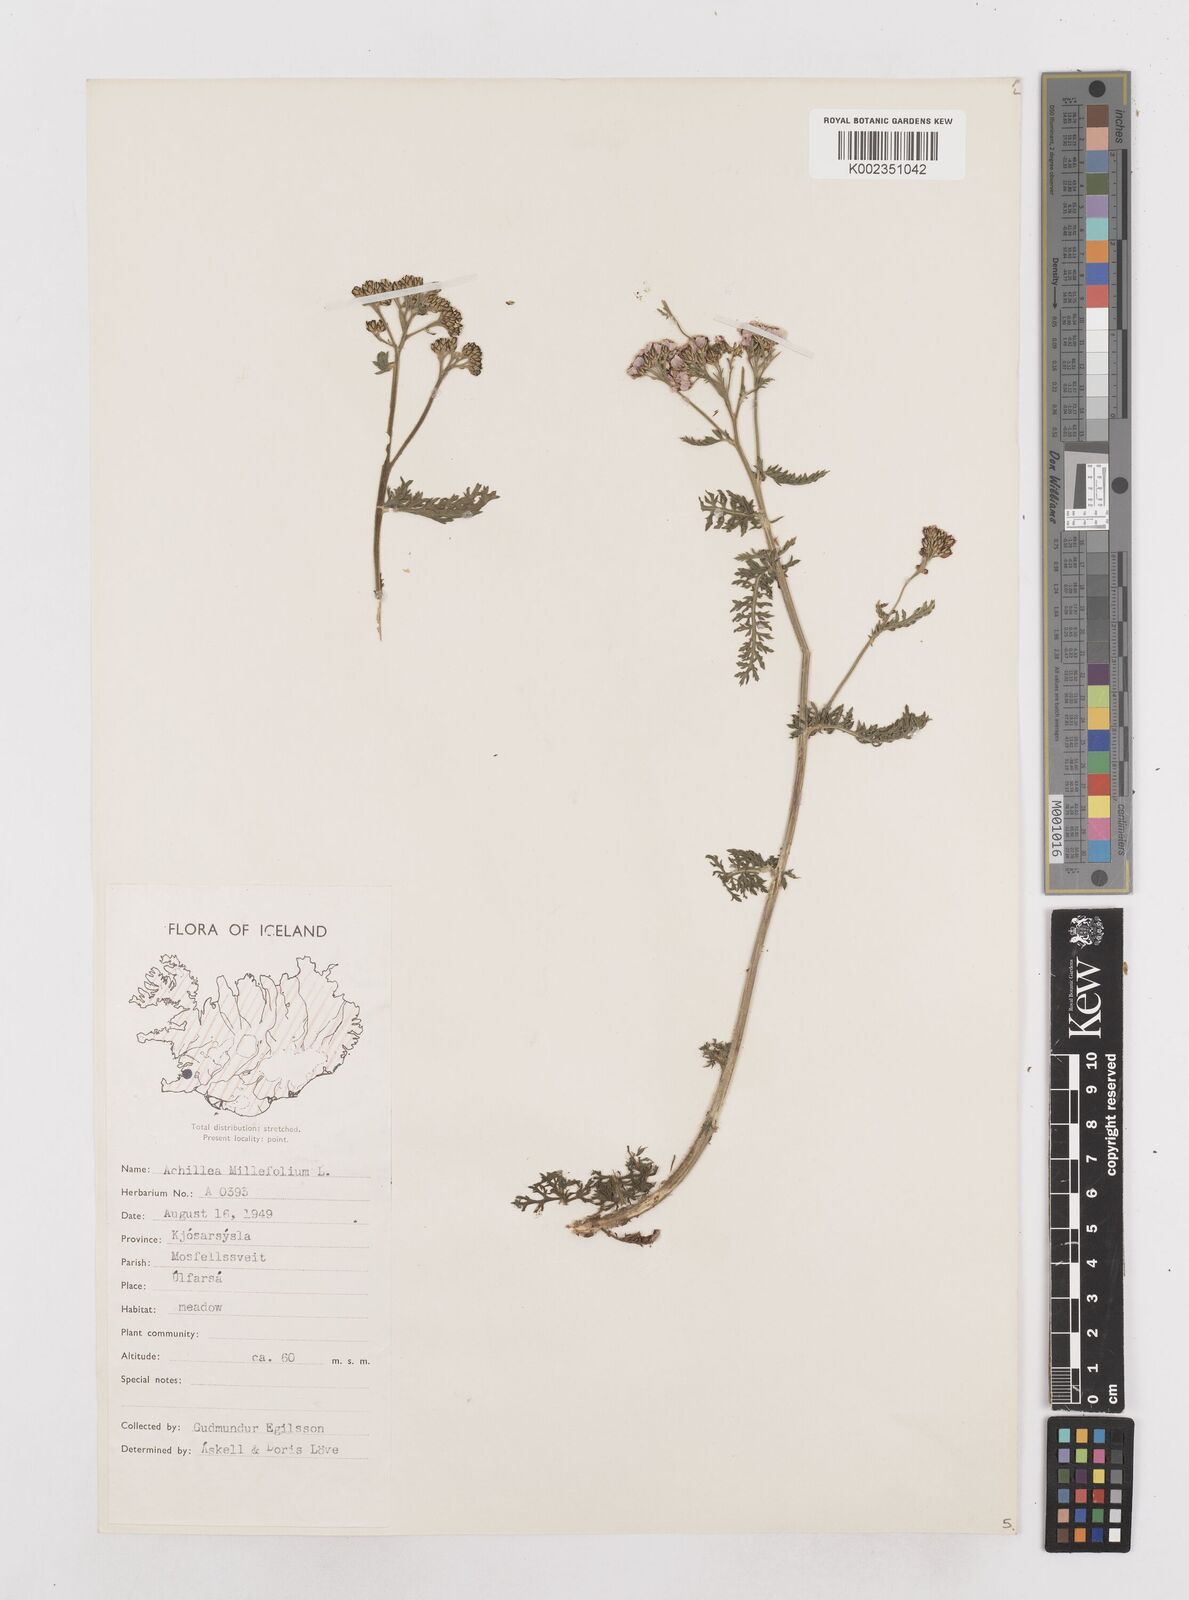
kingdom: Plantae
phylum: Tracheophyta
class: Magnoliopsida
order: Asterales
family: Asteraceae
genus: Achillea
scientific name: Achillea millefolium
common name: Yarrow
